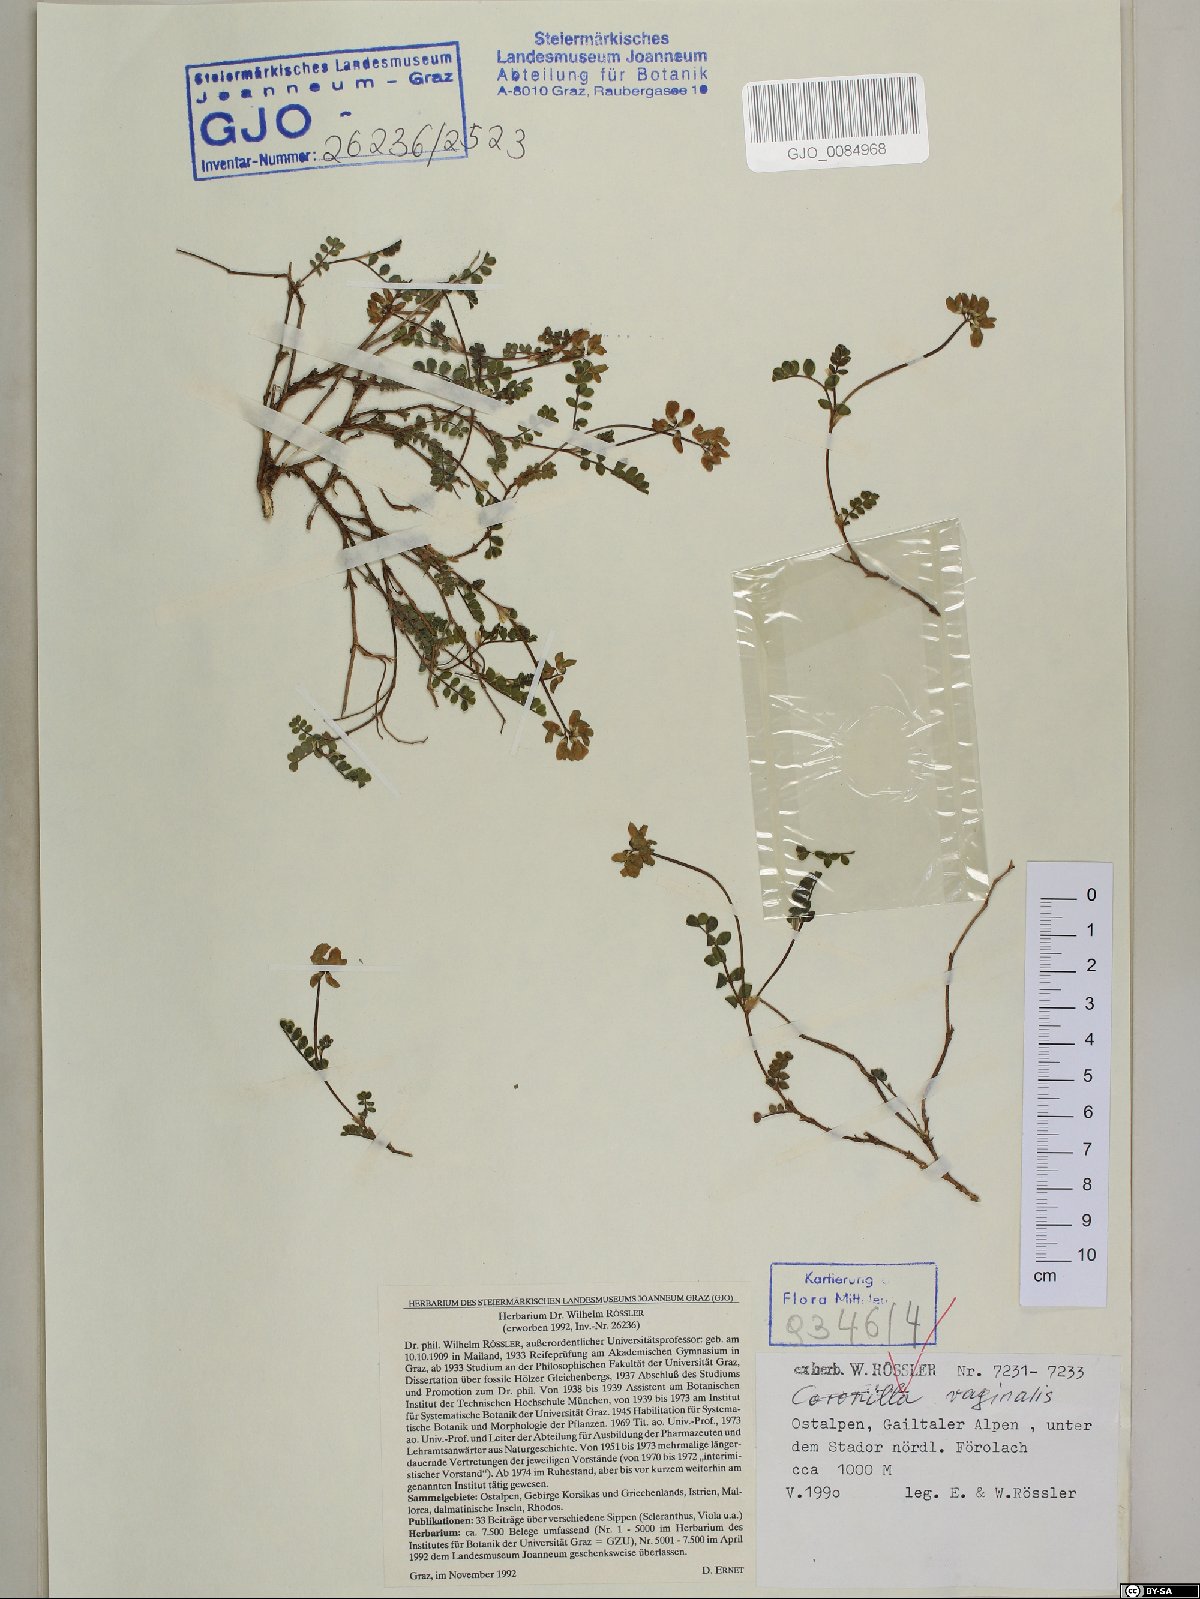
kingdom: Plantae
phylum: Tracheophyta
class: Magnoliopsida
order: Fabales
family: Fabaceae
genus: Coronilla
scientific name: Coronilla vaginalis
